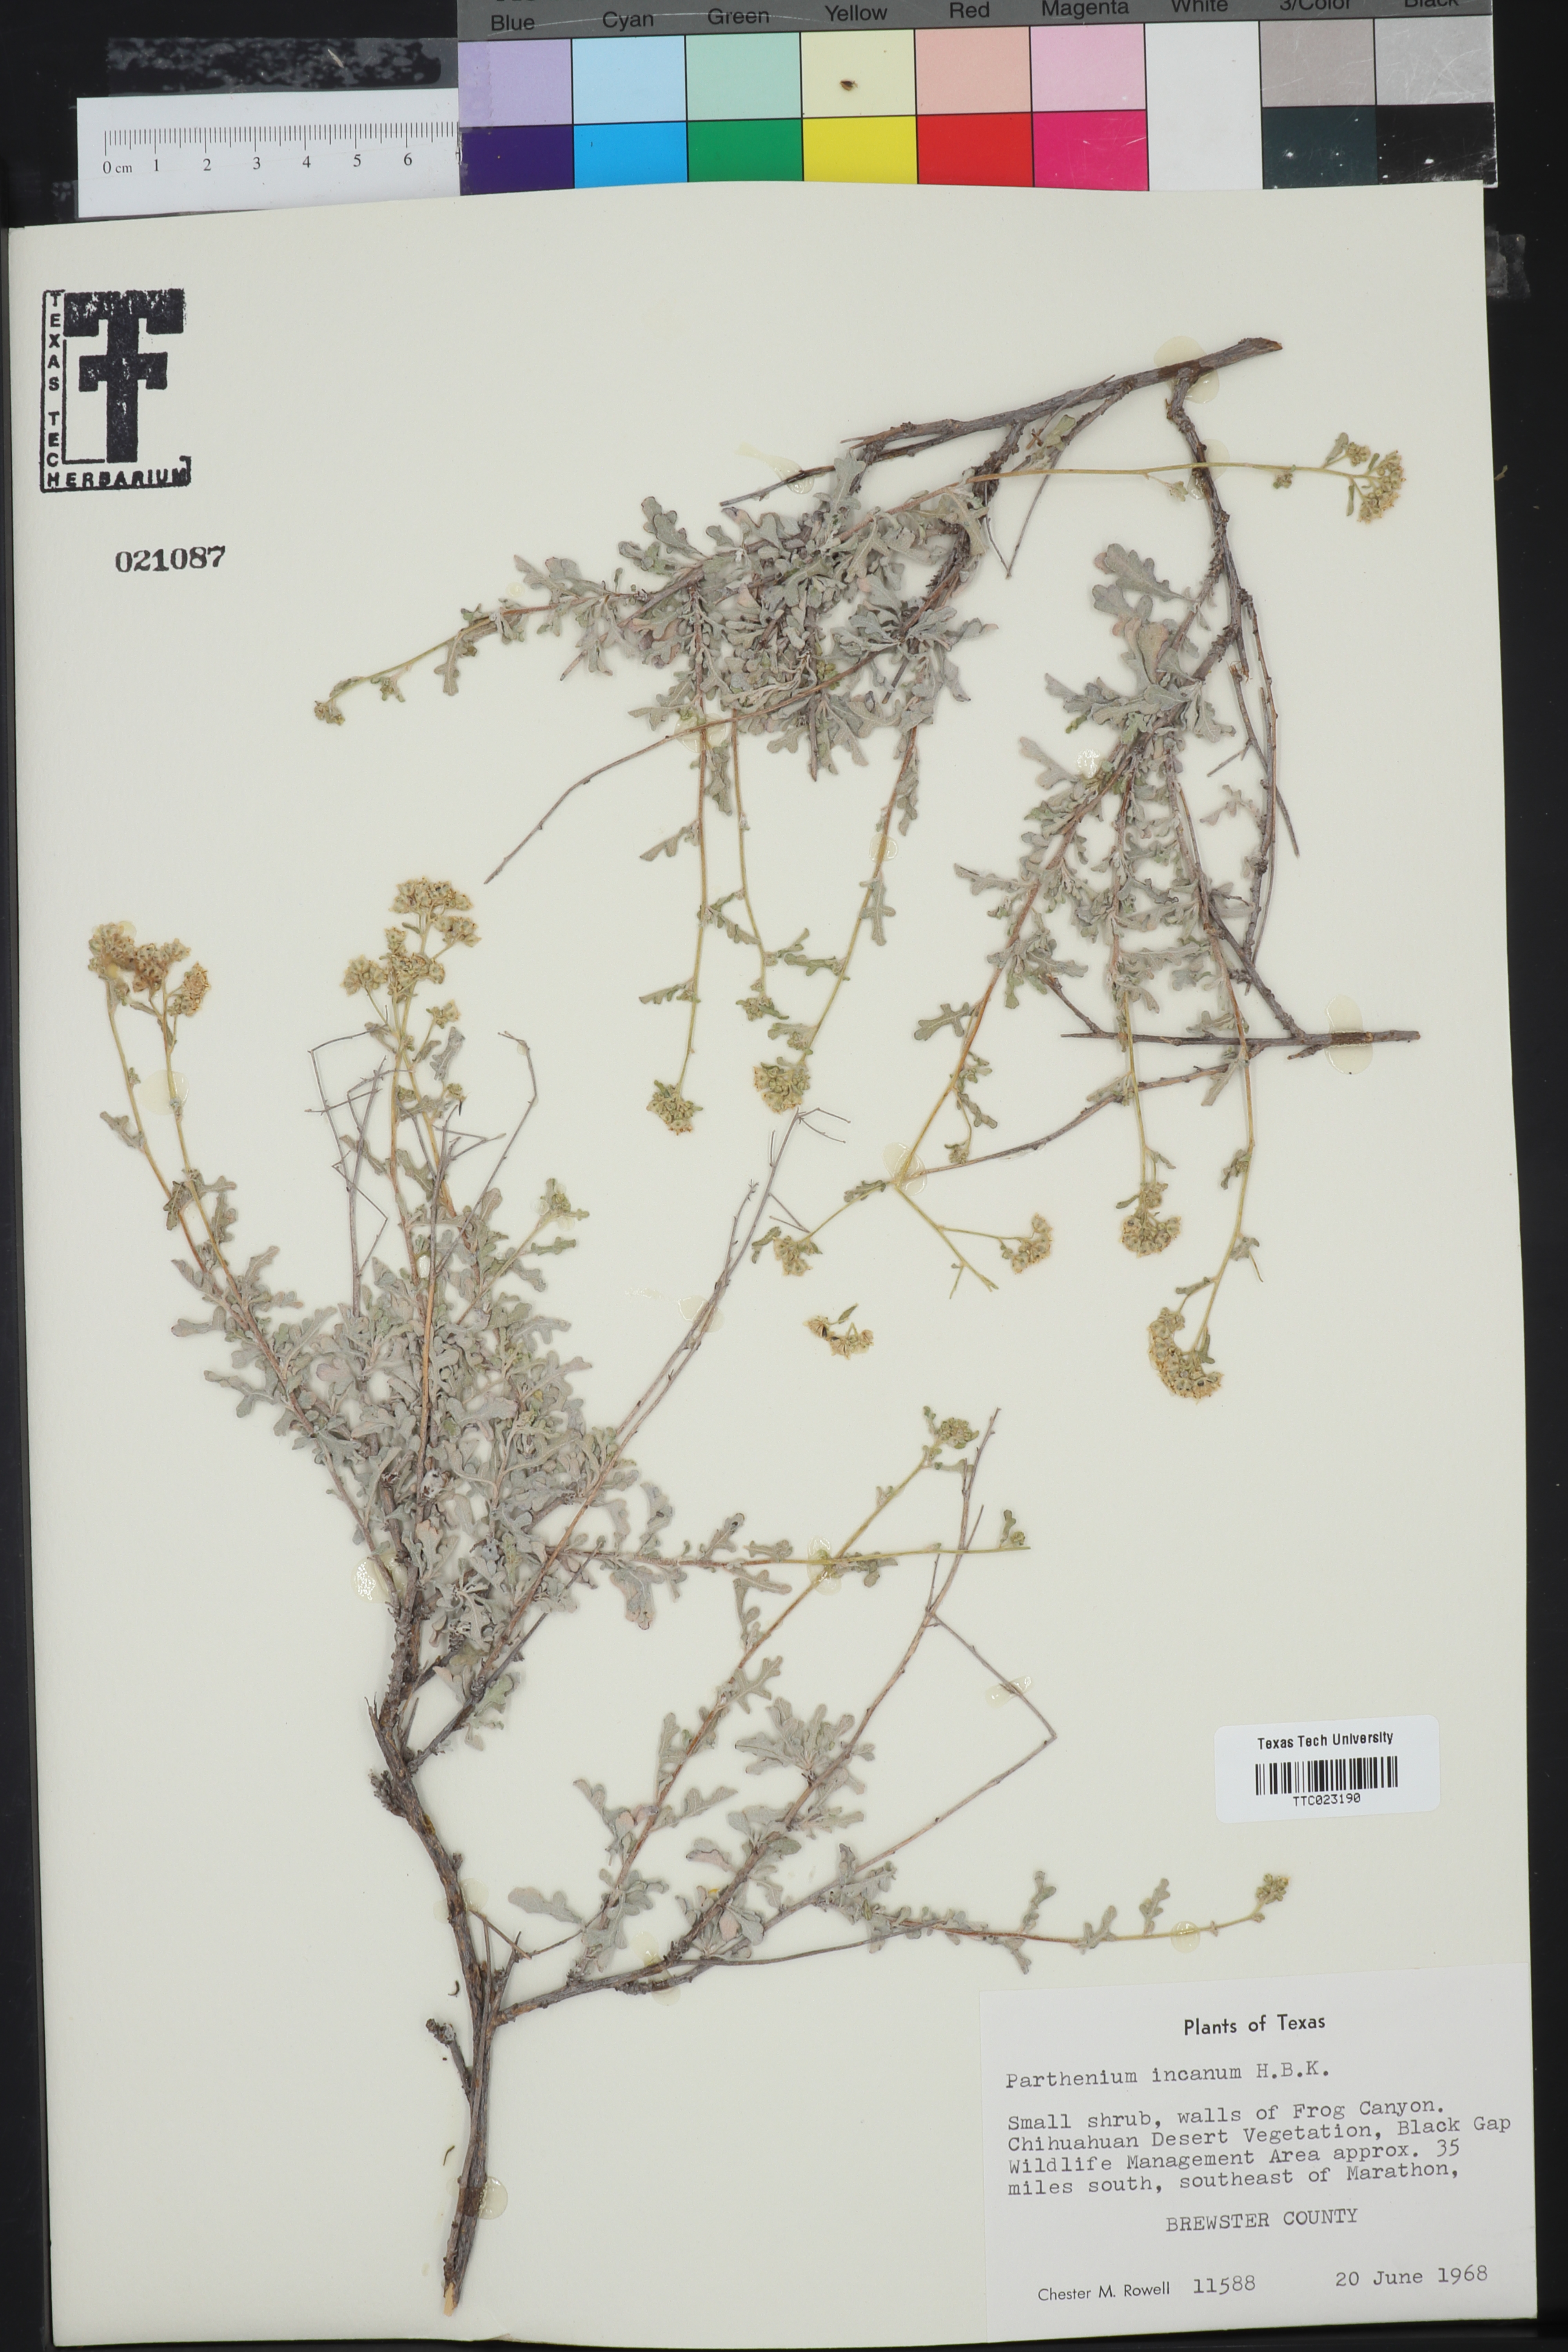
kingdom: Plantae
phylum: Tracheophyta
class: Magnoliopsida
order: Asterales
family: Asteraceae
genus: Parthenium
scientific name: Parthenium incanum
